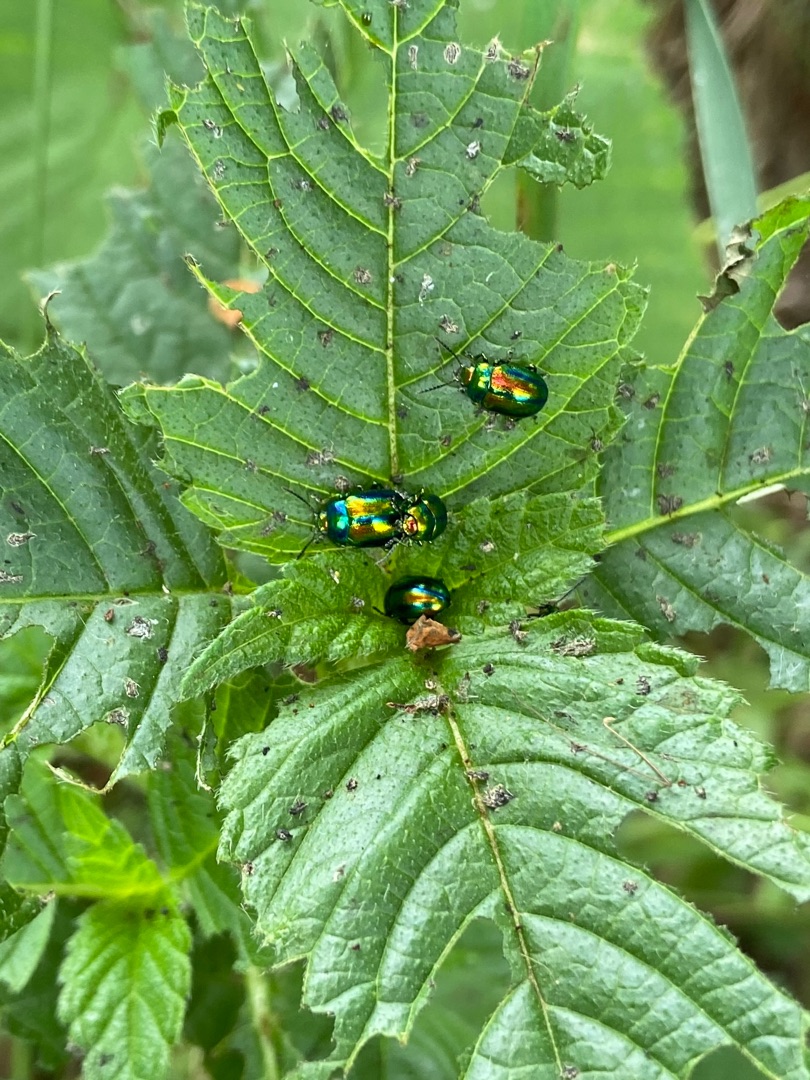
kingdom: Animalia
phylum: Arthropoda
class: Insecta
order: Coleoptera
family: Chrysomelidae
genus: Chrysolina
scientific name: Chrysolina fastuosa
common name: Tvetandbladbille
